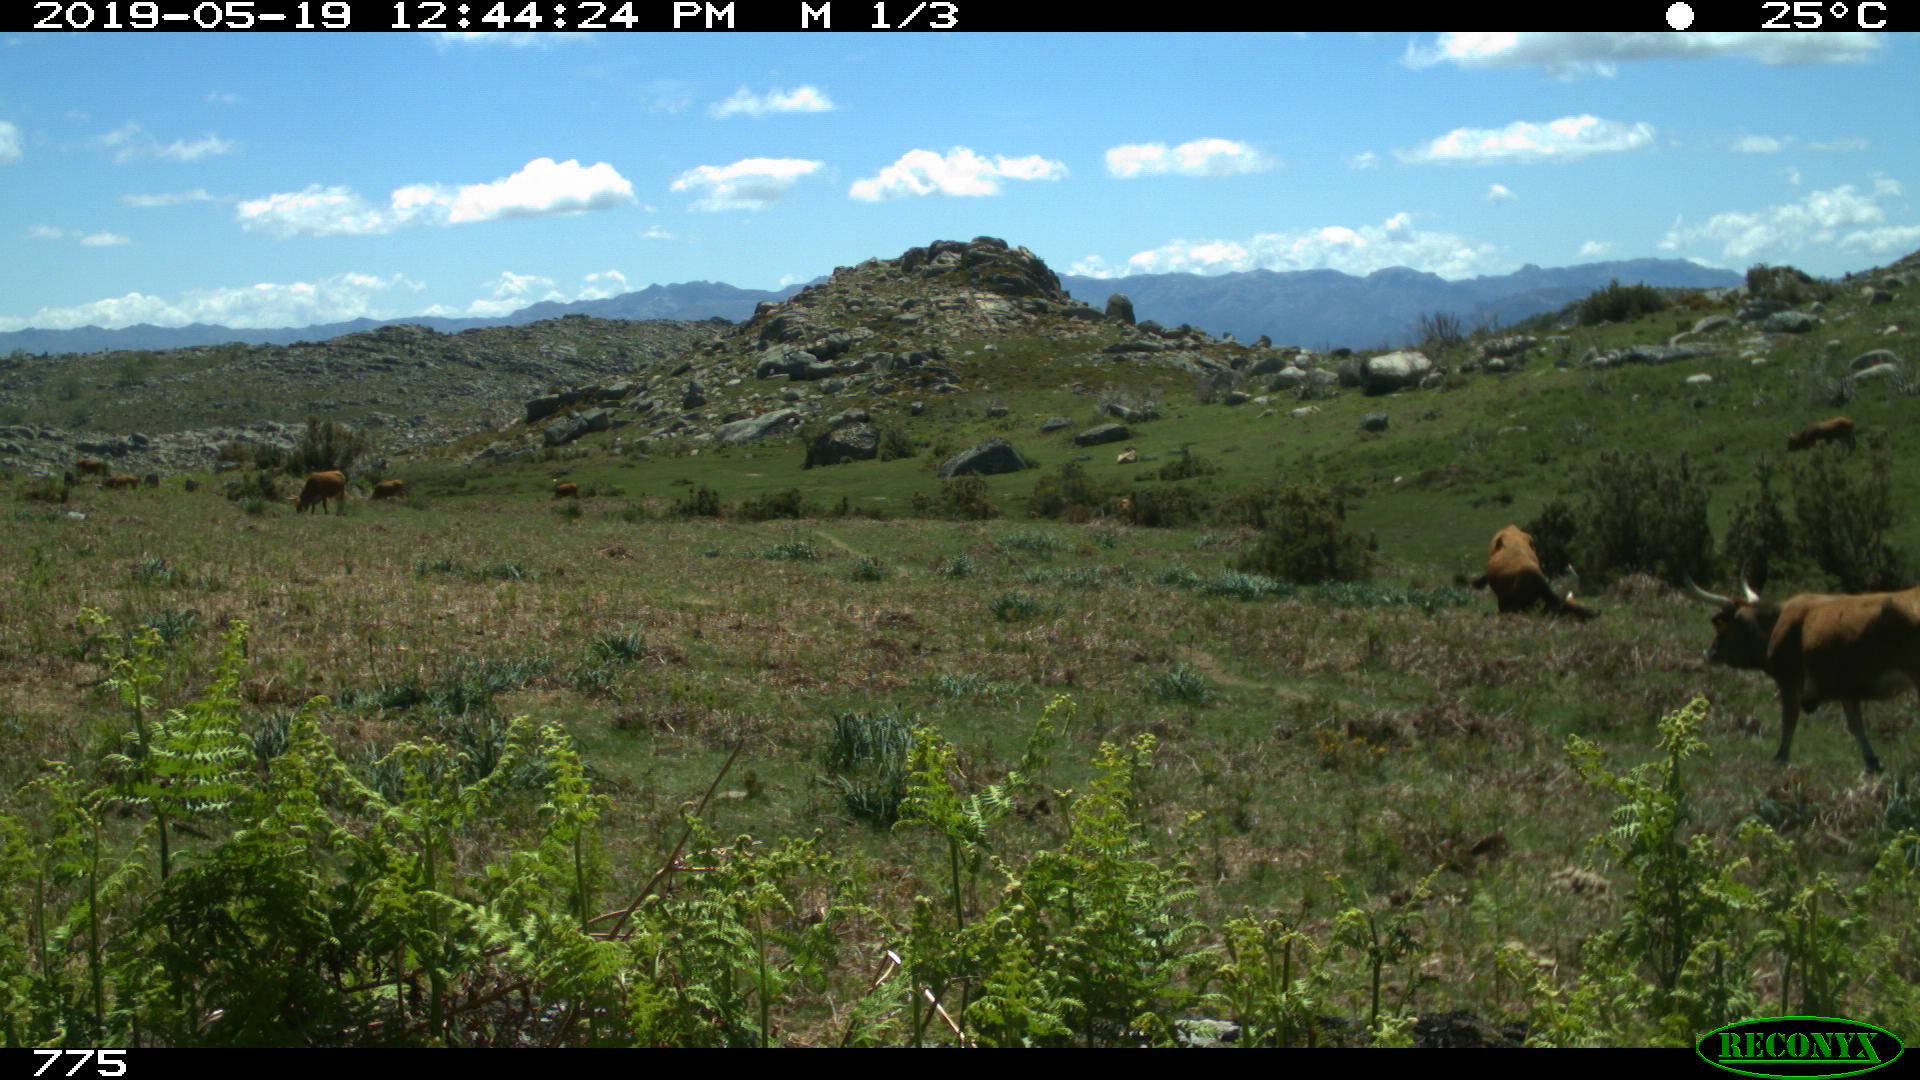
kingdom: Animalia
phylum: Chordata
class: Mammalia
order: Artiodactyla
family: Bovidae
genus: Bos
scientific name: Bos taurus
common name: Domesticated cattle
